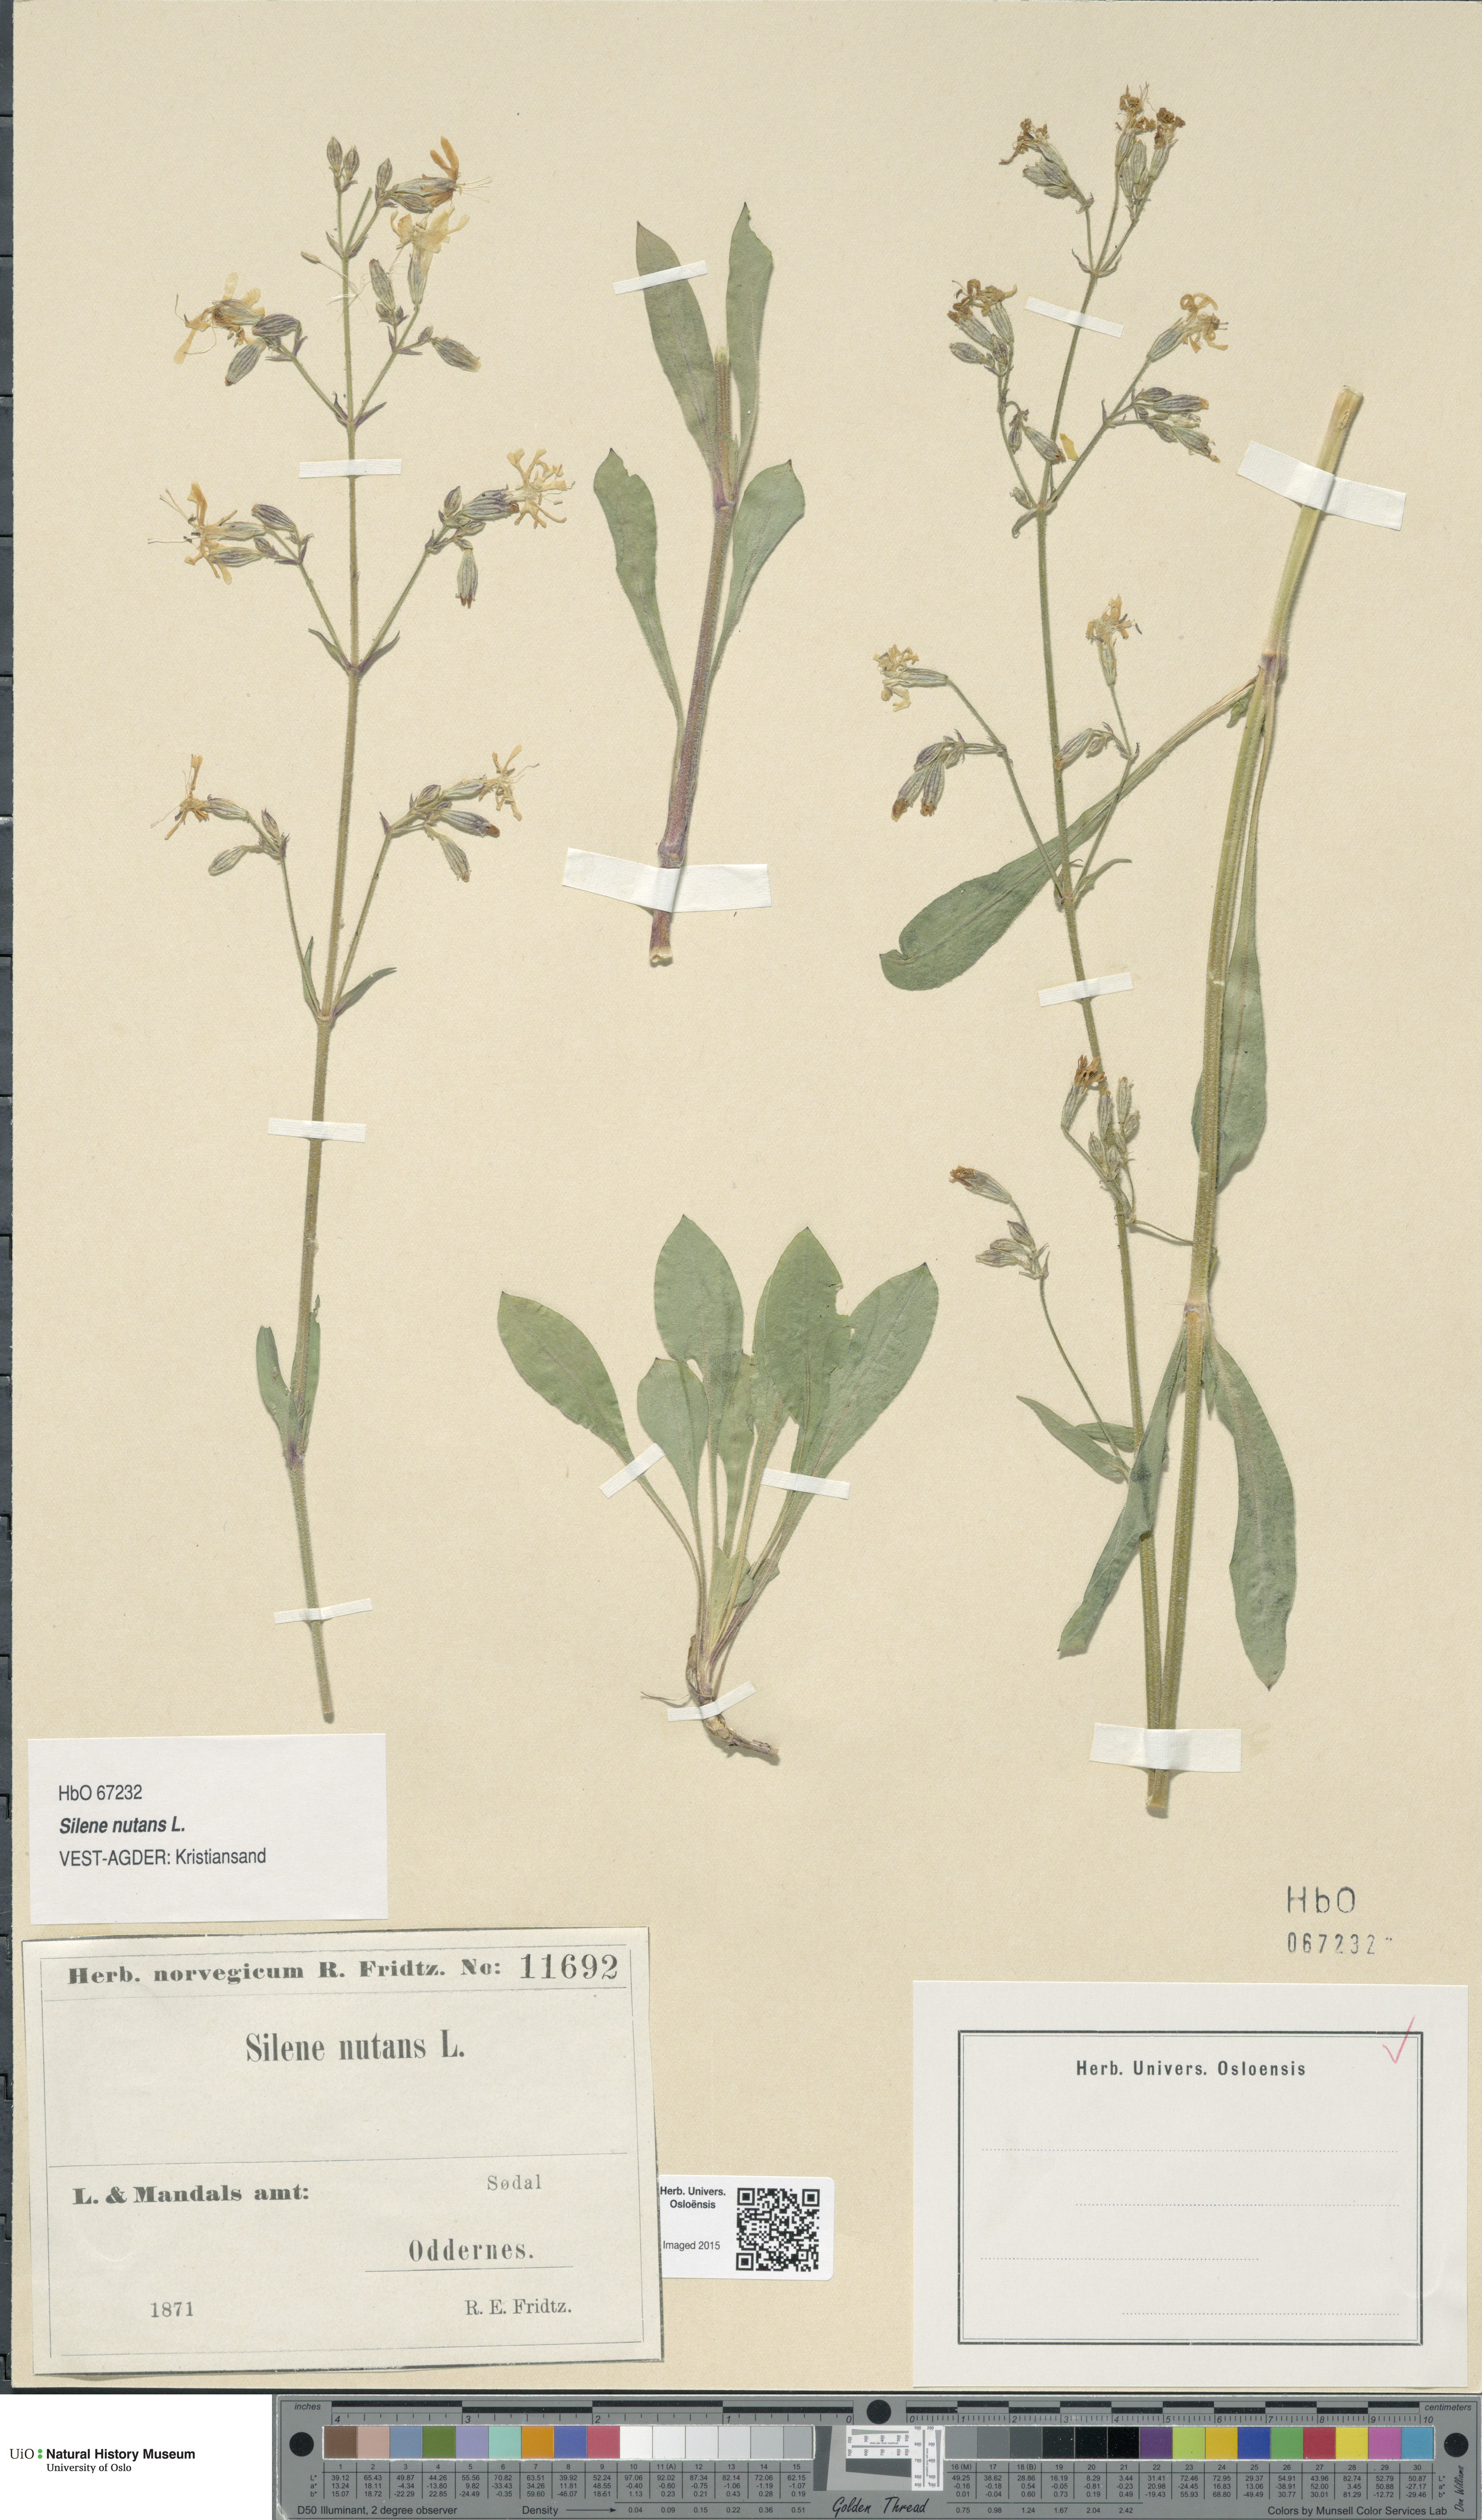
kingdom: Plantae
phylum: Tracheophyta
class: Magnoliopsida
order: Caryophyllales
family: Caryophyllaceae
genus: Silene
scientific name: Silene nutans
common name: Nottingham catchfly
